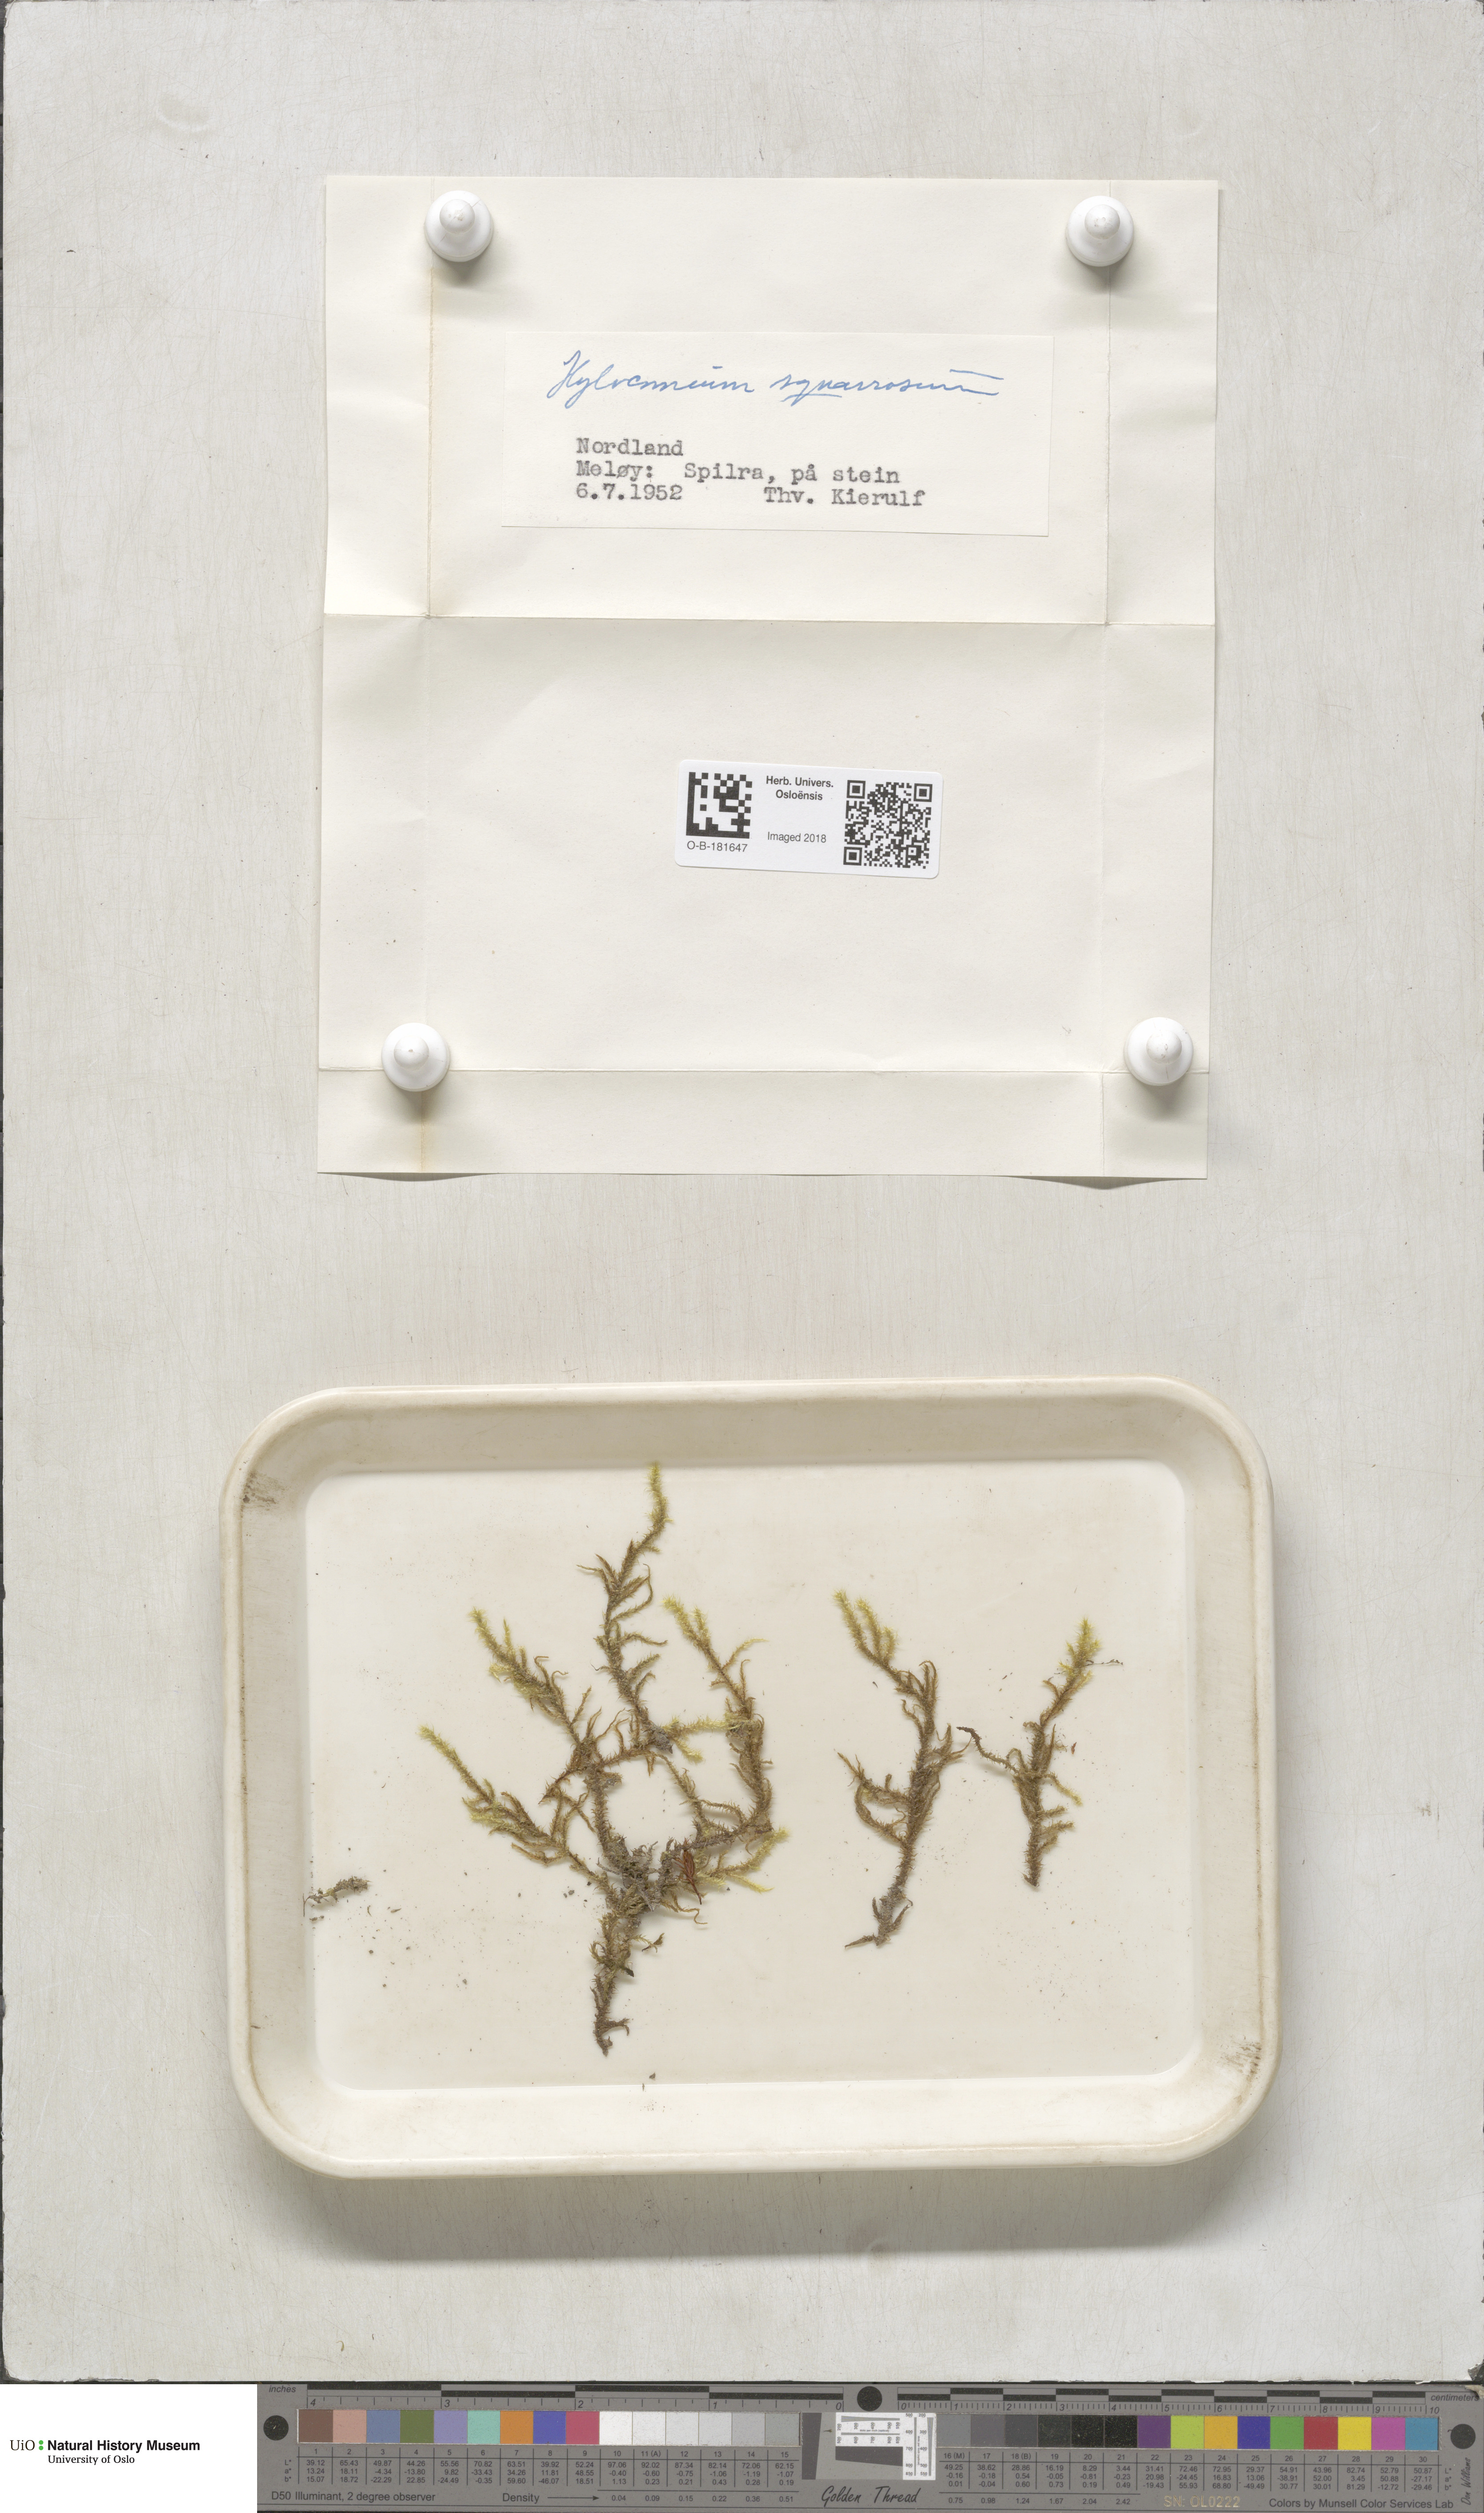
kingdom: Plantae
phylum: Bryophyta
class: Bryopsida
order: Hypnales
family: Hylocomiaceae
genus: Rhytidiadelphus
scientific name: Rhytidiadelphus squarrosus
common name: Springy turf-moss
